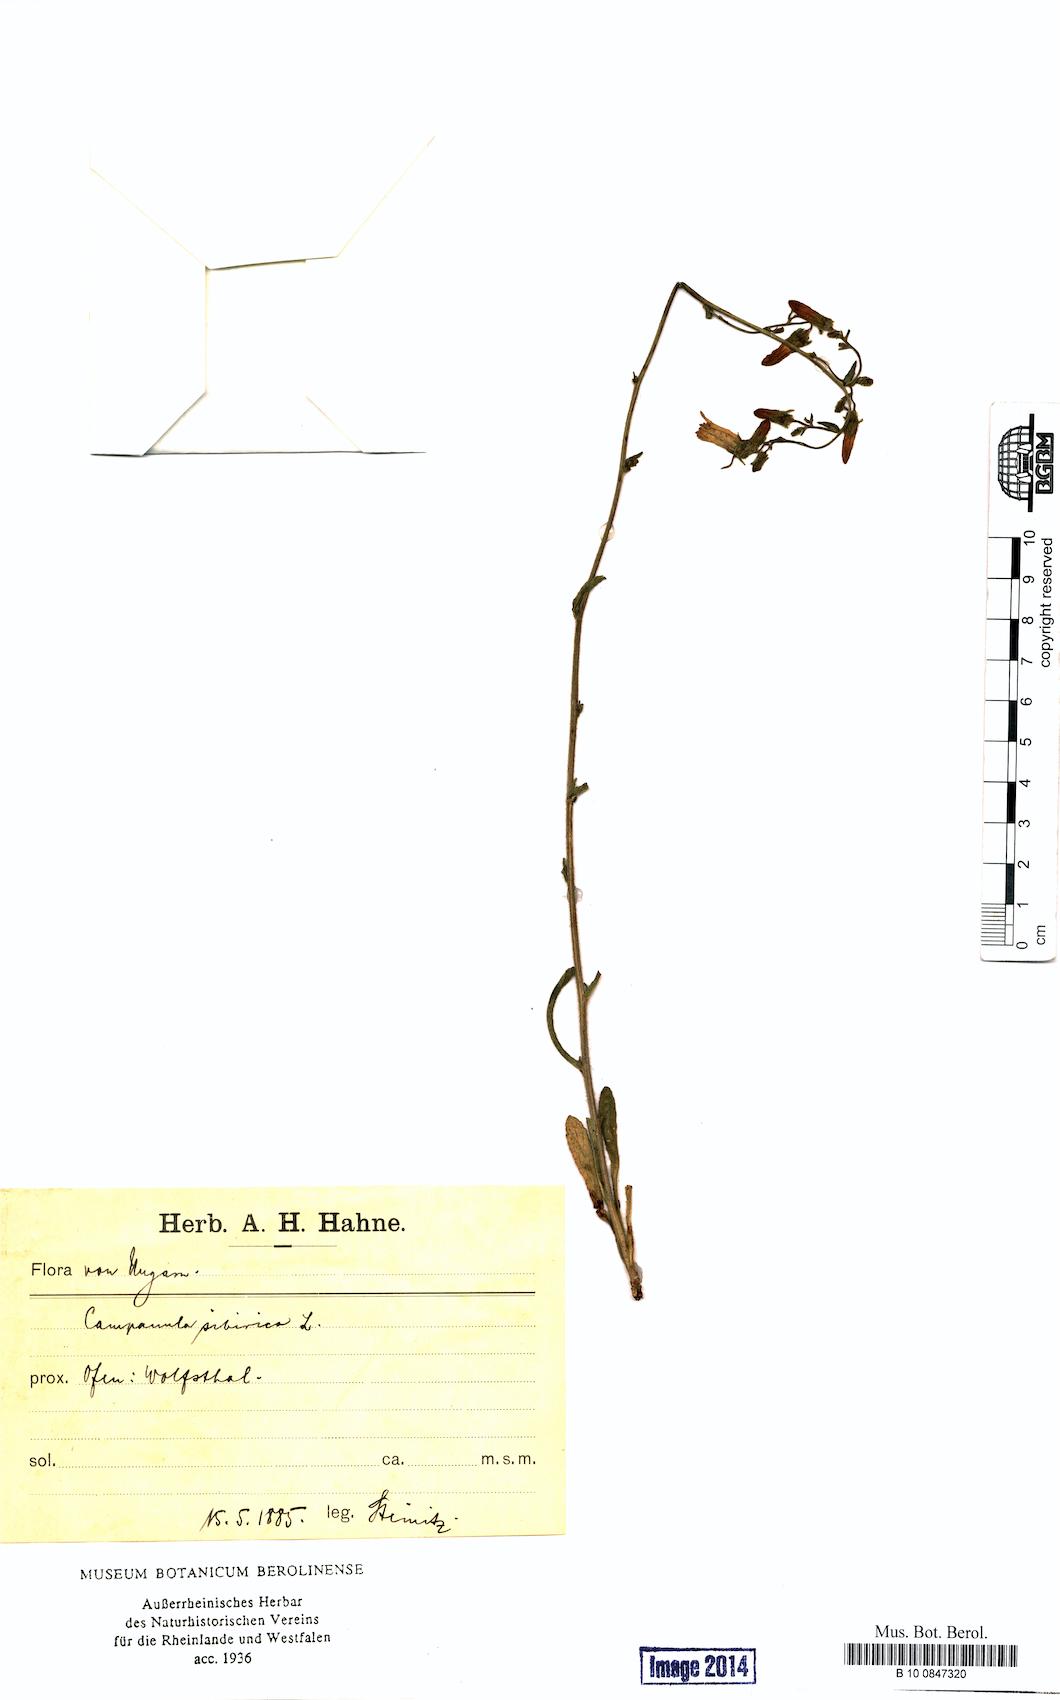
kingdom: Plantae
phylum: Tracheophyta
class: Magnoliopsida
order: Asterales
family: Campanulaceae
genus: Campanula
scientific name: Campanula sibirica
